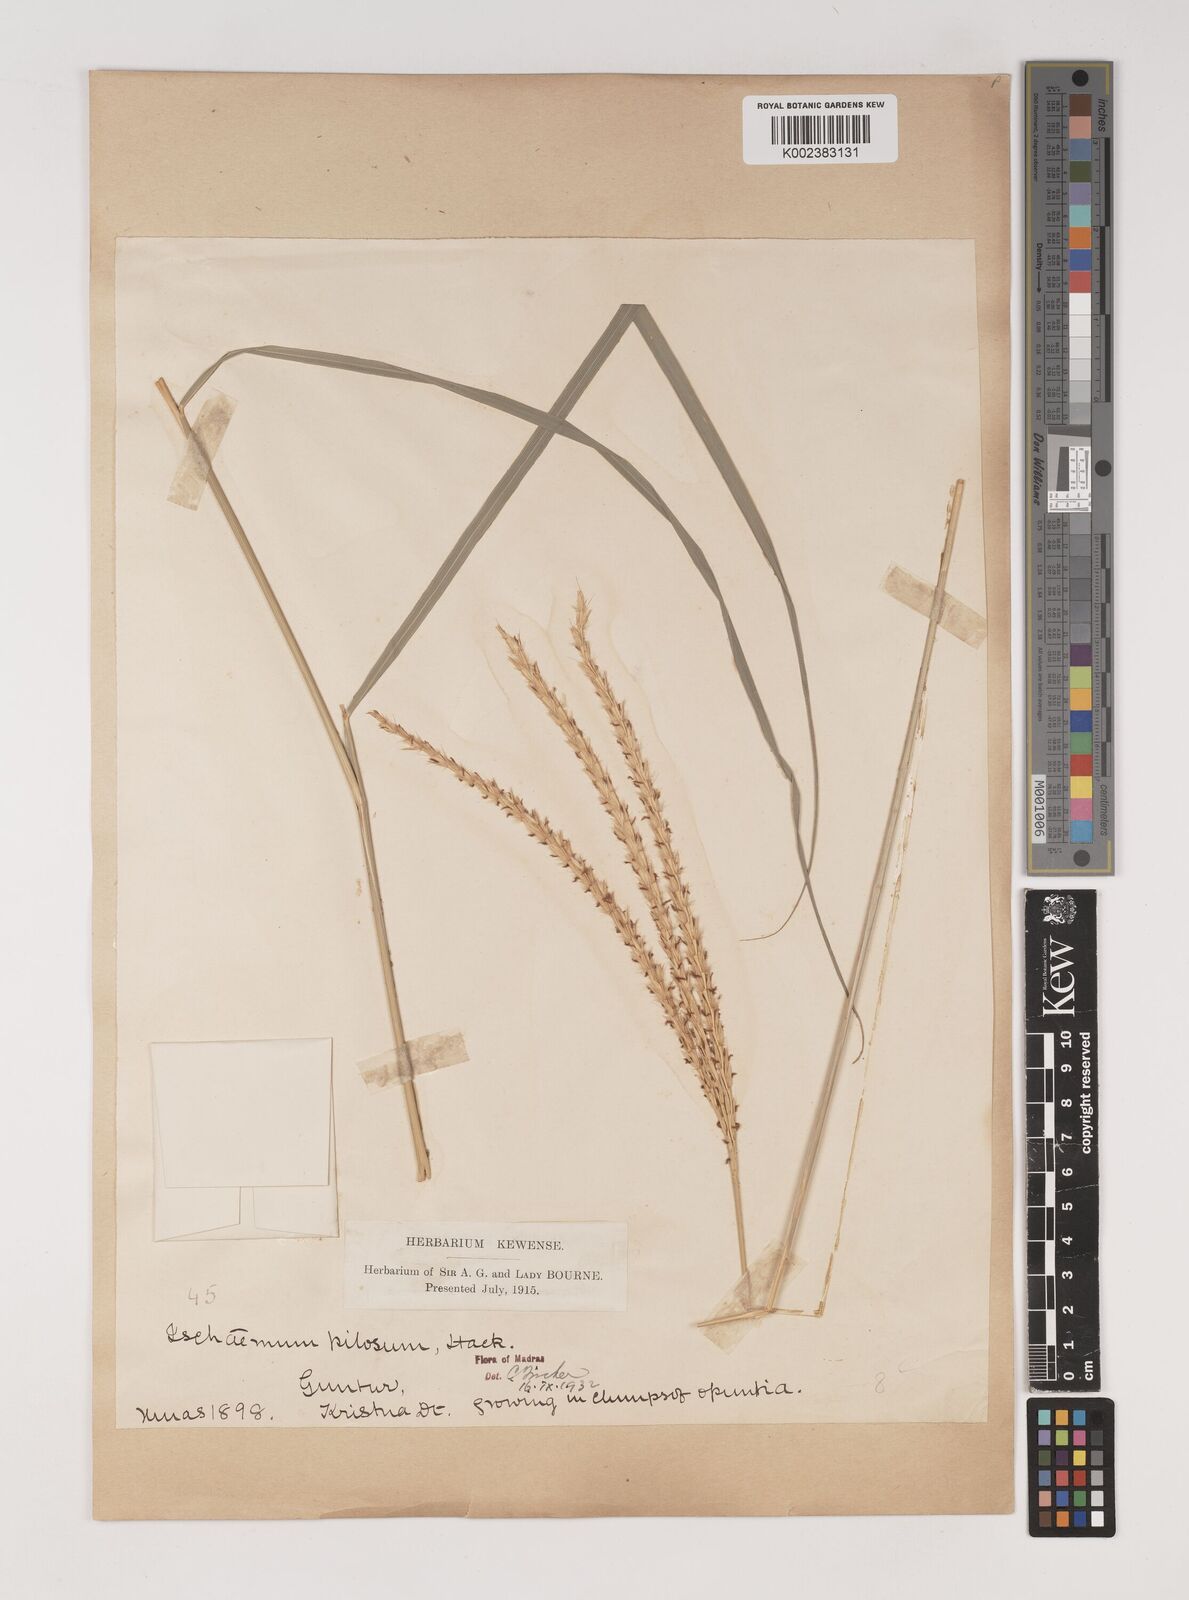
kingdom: Plantae
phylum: Tracheophyta
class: Liliopsida
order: Poales
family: Poaceae
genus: Ischaemum
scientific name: Ischaemum afrum
